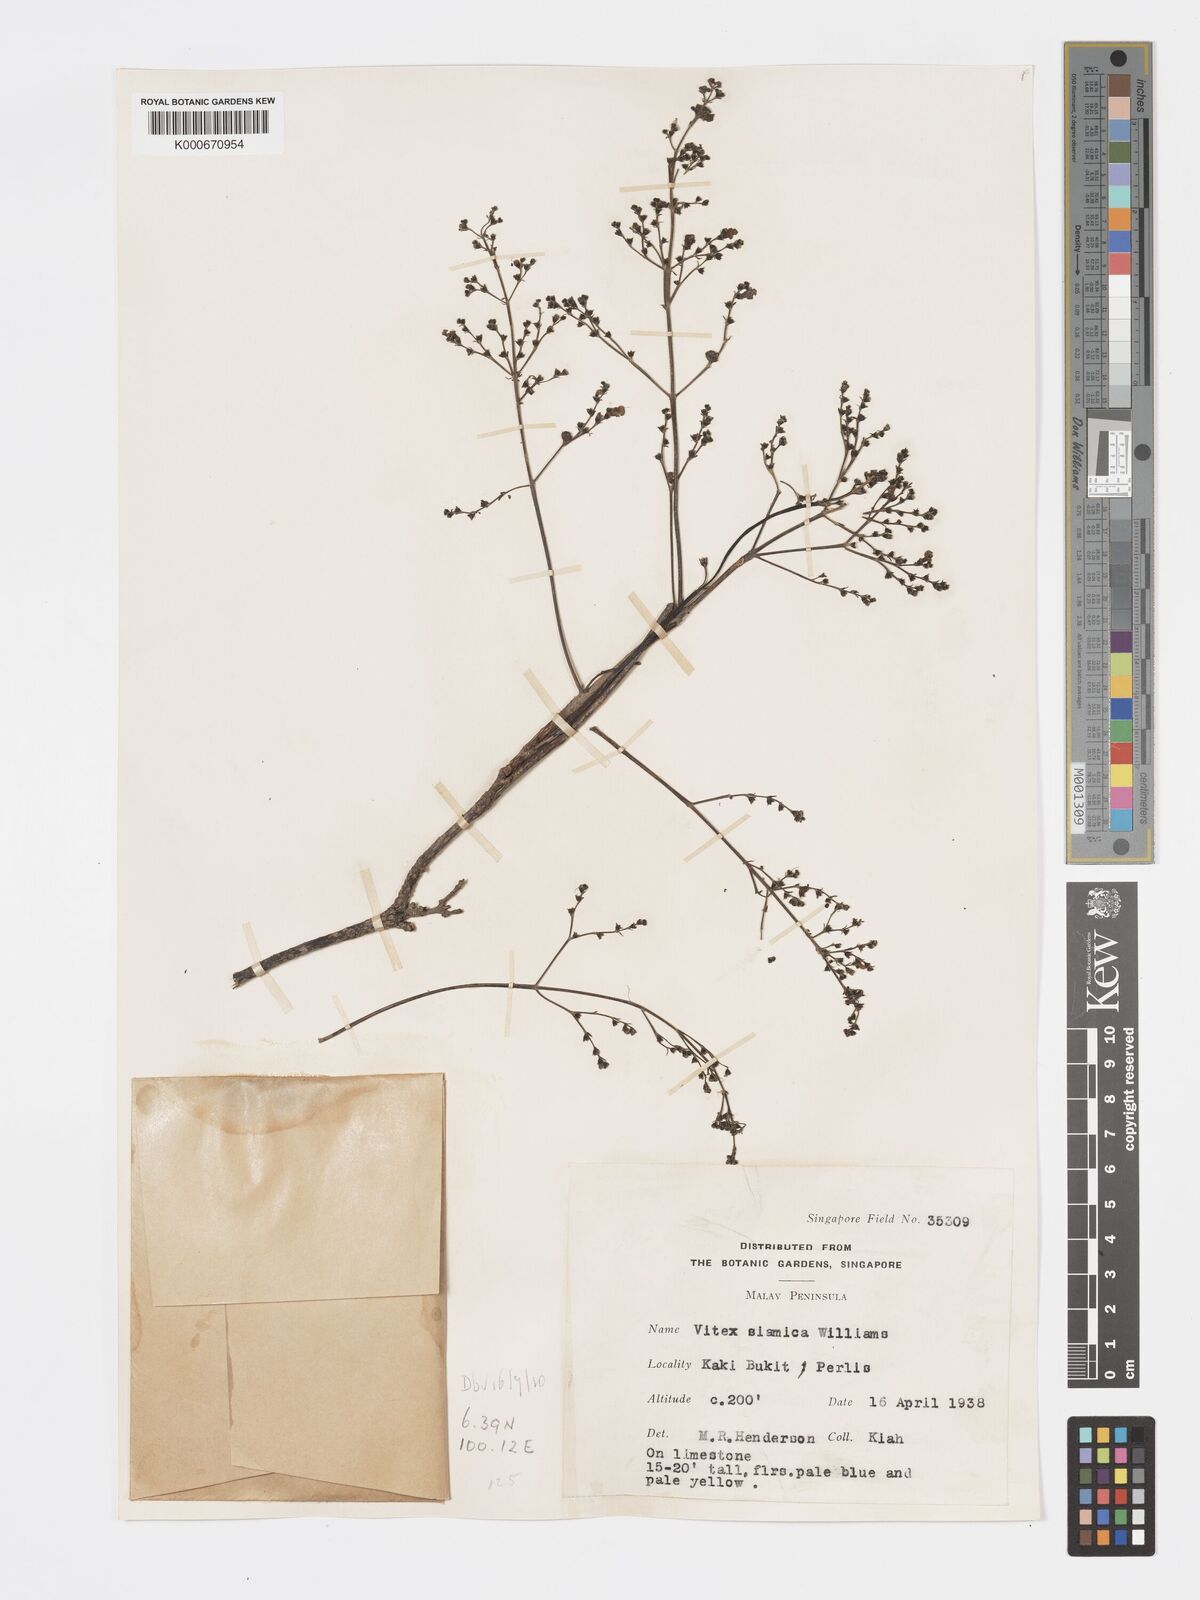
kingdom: Plantae
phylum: Tracheophyta
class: Magnoliopsida
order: Lamiales
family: Lamiaceae
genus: Vitex
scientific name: Vitex siamica
